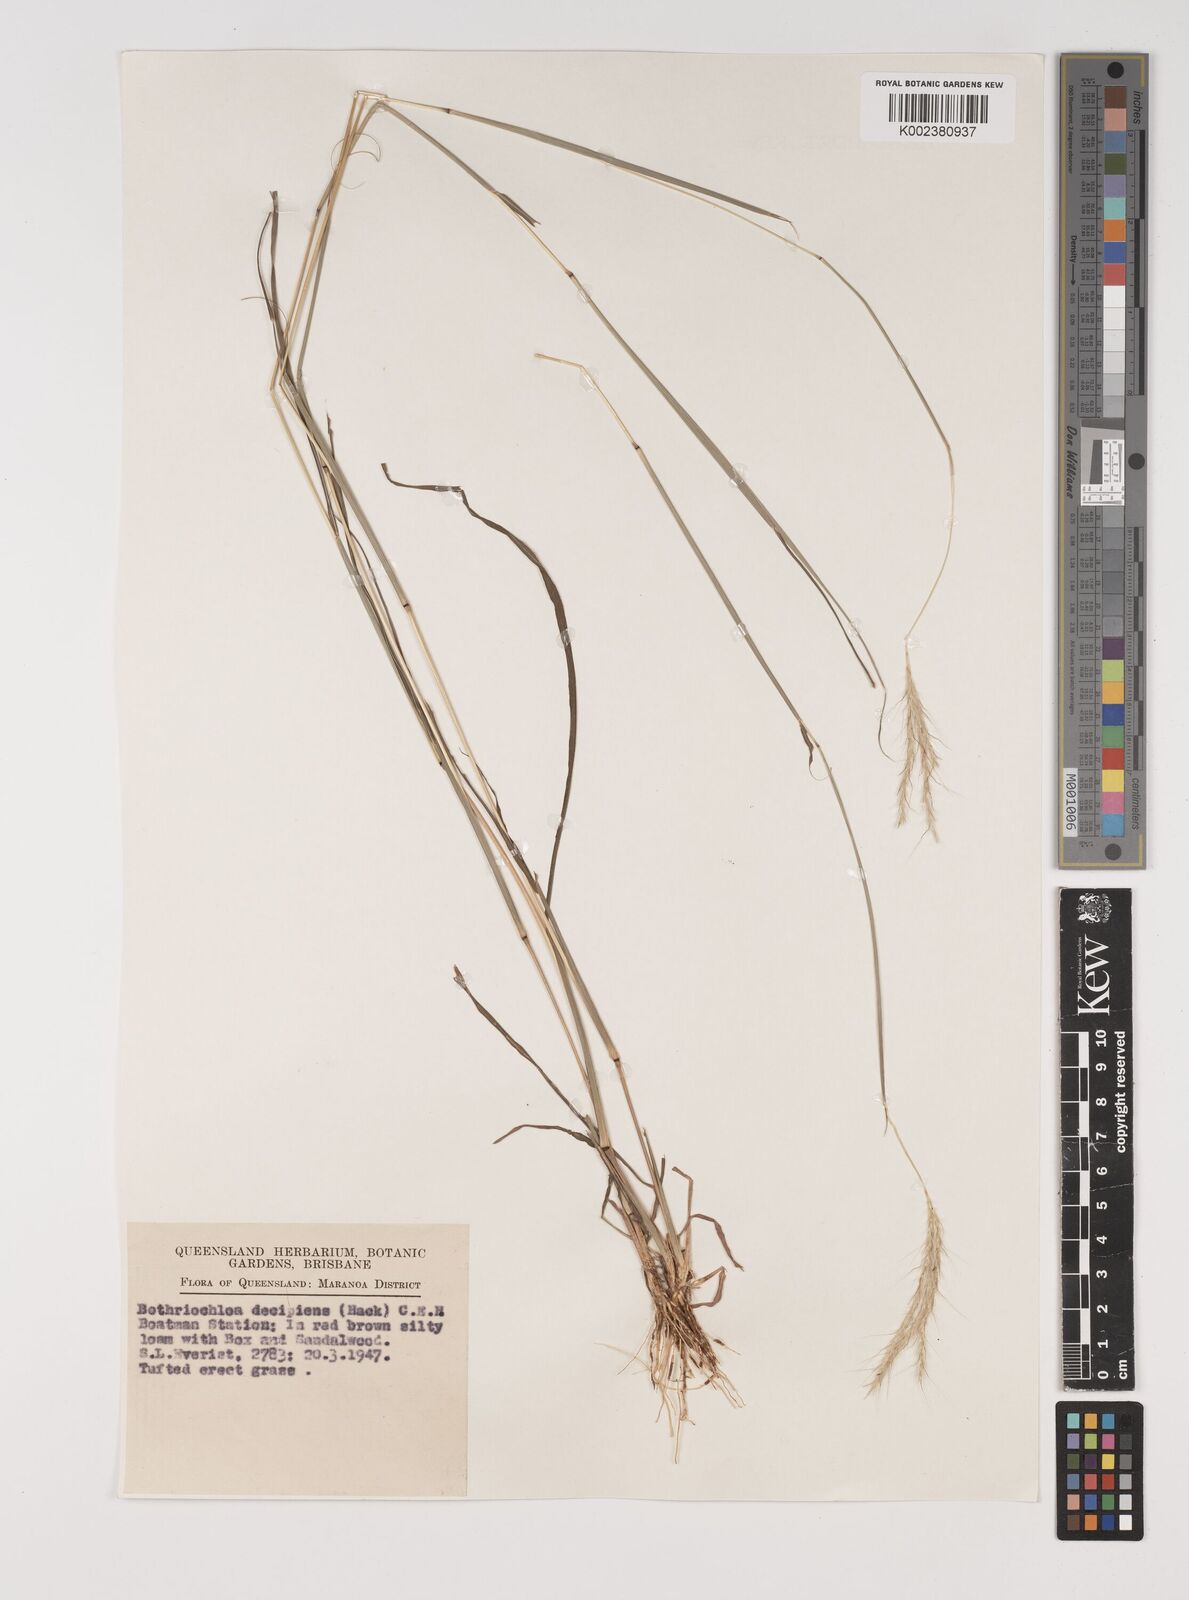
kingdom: Plantae
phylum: Tracheophyta
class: Liliopsida
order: Poales
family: Poaceae
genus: Bothriochloa
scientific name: Bothriochloa decipiens
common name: Pitted-bluegrass
